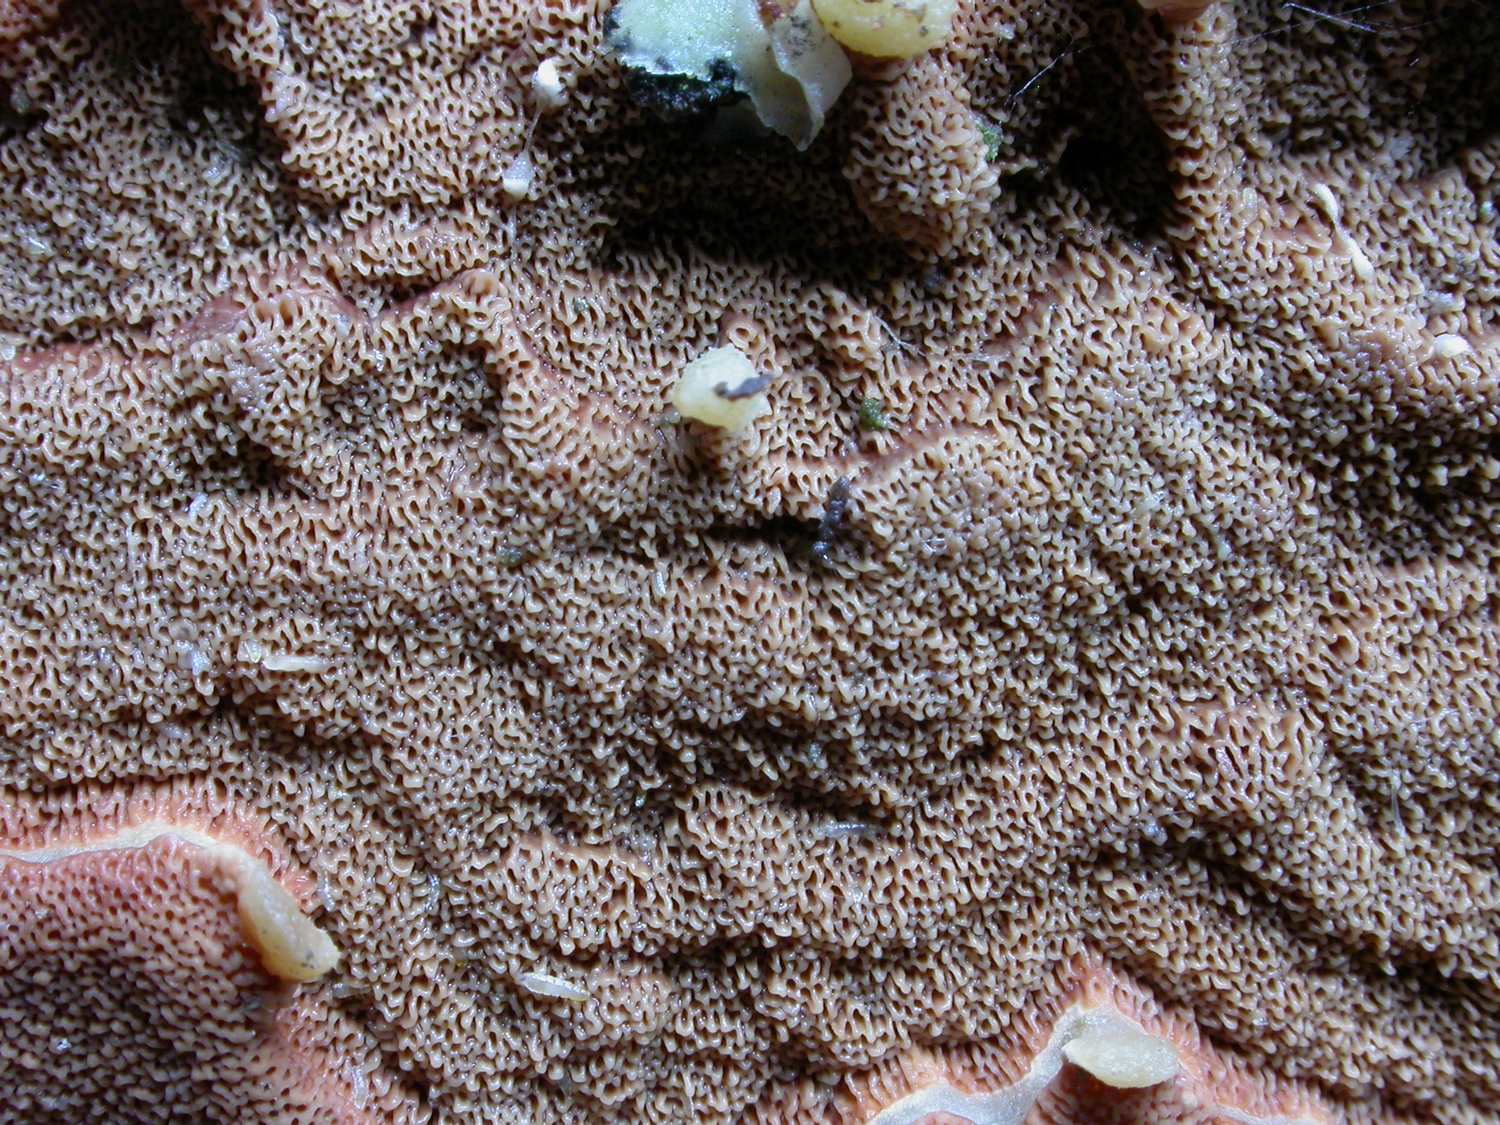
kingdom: Fungi
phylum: Basidiomycota
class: Agaricomycetes
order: Polyporales
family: Irpicaceae
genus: Meruliopsis
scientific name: Meruliopsis taxicola
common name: purpurbrun foldporesvamp
